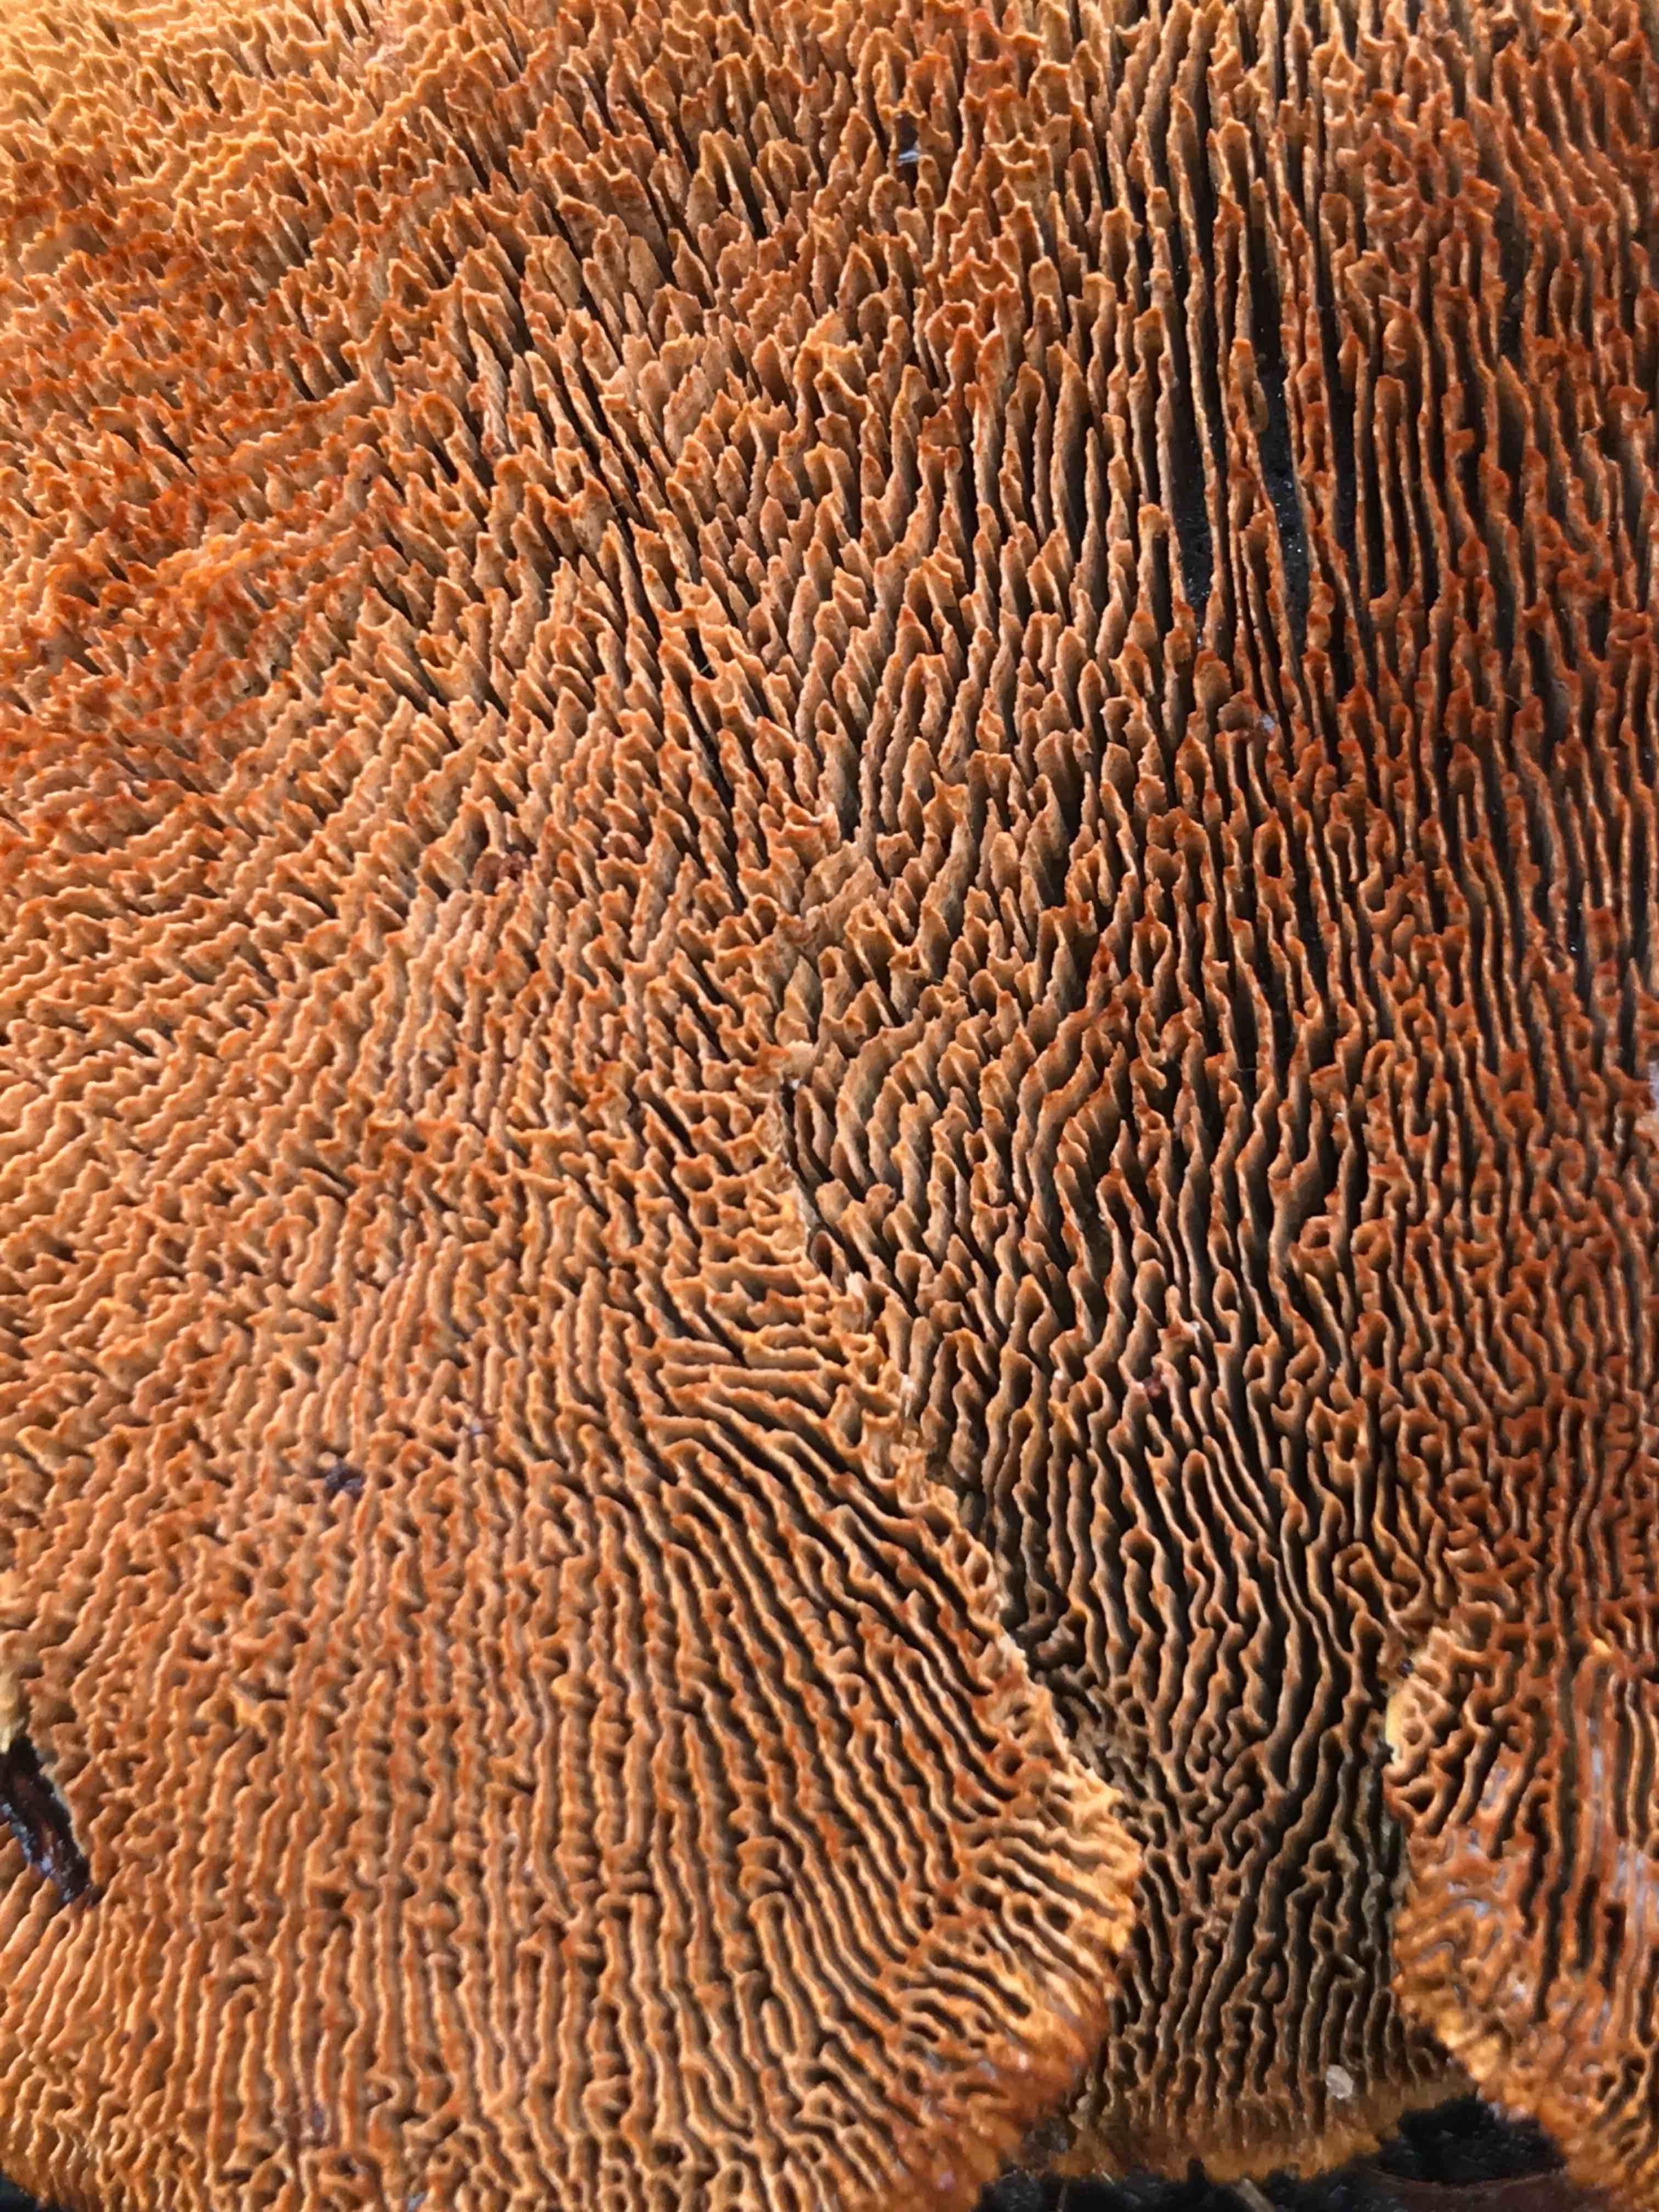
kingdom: Fungi
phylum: Basidiomycota
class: Agaricomycetes
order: Gloeophyllales
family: Gloeophyllaceae
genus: Gloeophyllum
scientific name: Gloeophyllum sepiarium
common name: fyrre-korkhat
